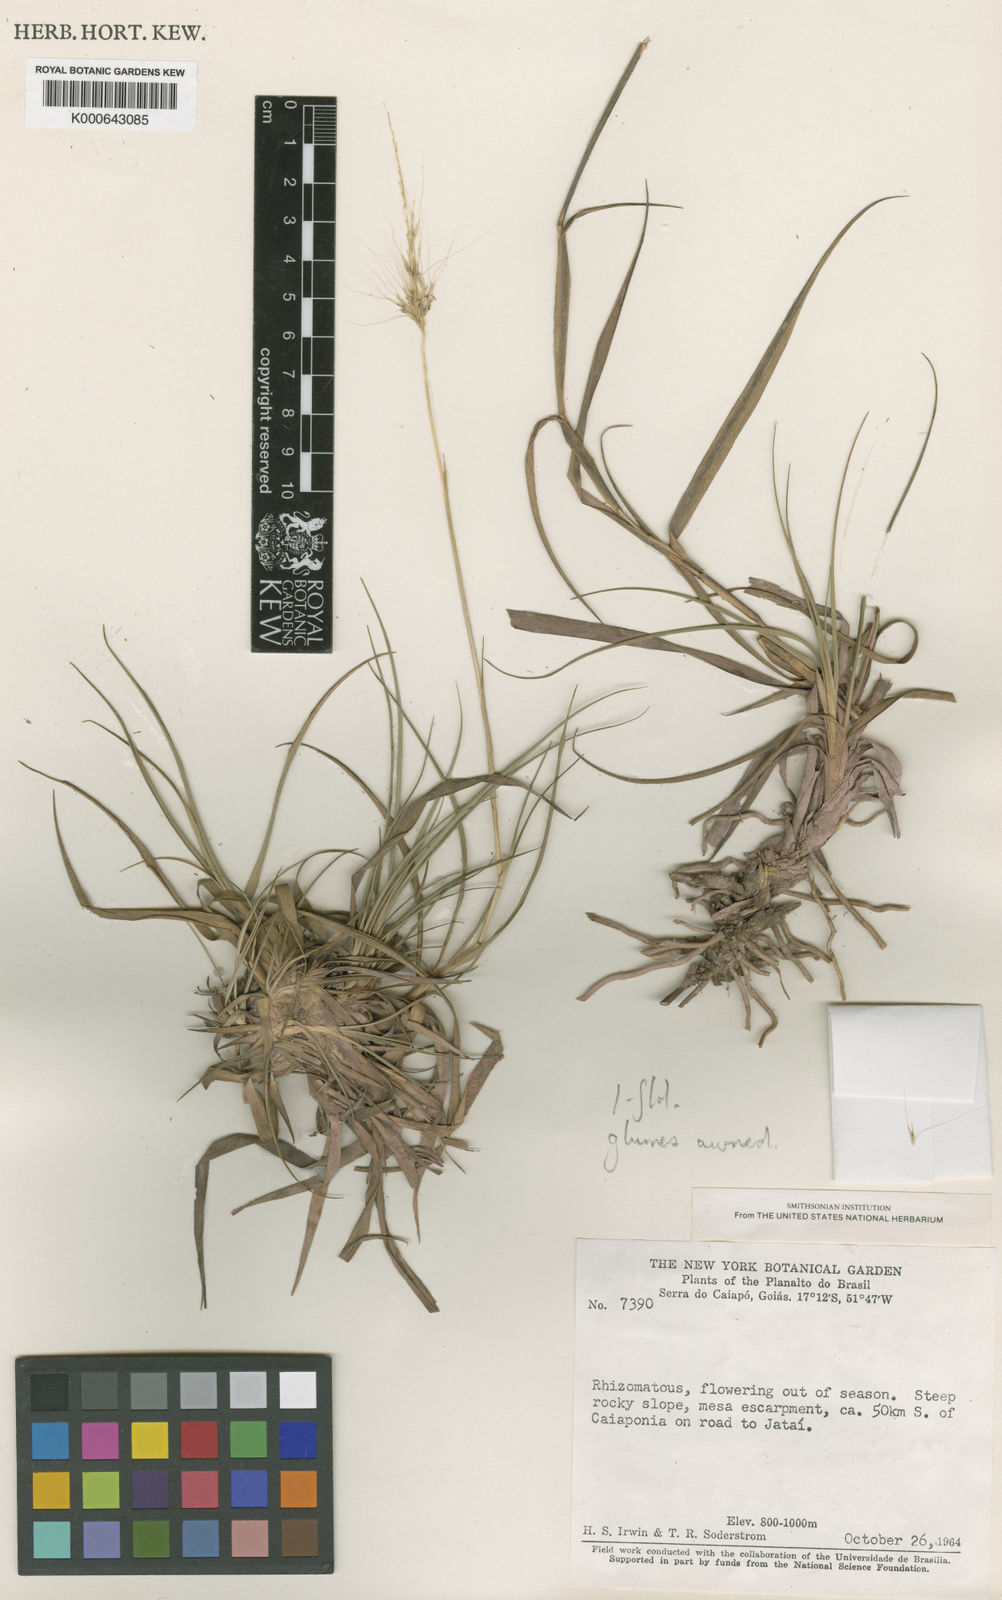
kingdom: Plantae
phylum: Tracheophyta
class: Liliopsida
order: Poales
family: Poaceae
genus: Arthropogon
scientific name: Arthropogon
